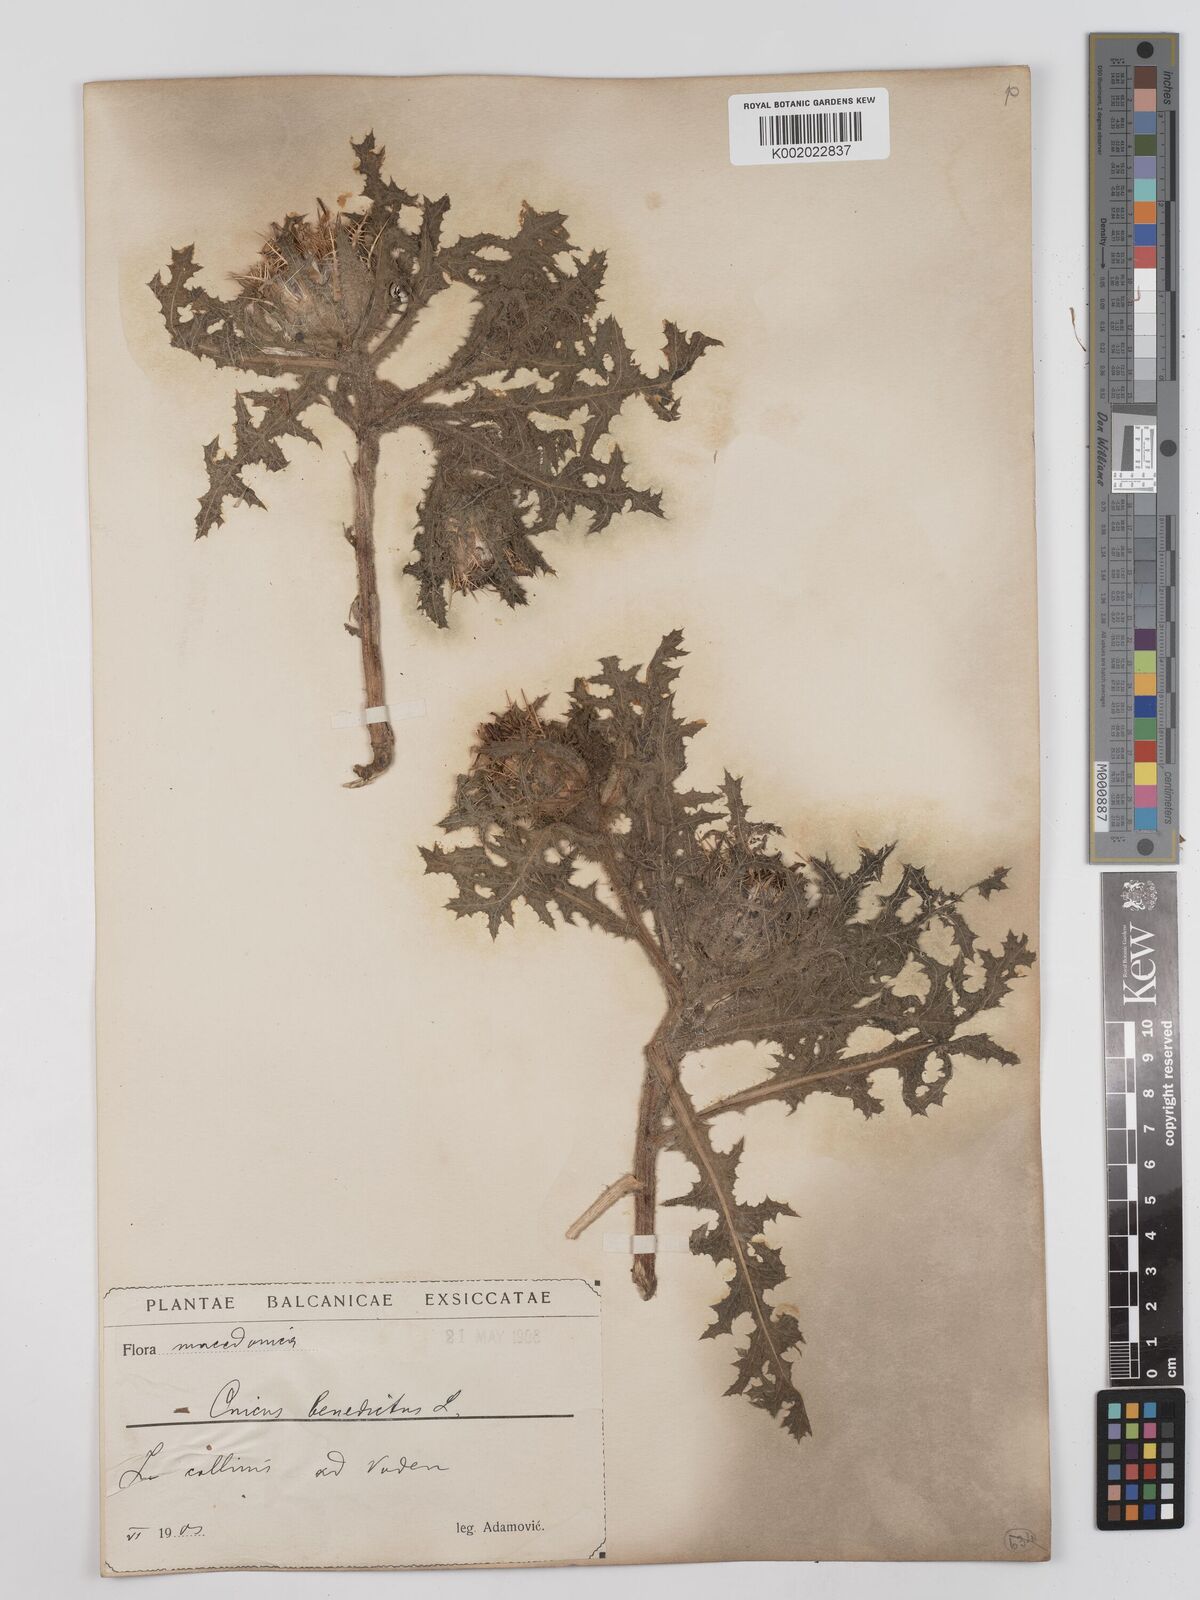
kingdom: Plantae
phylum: Tracheophyta
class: Magnoliopsida
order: Asterales
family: Asteraceae
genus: Centaurea
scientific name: Centaurea benedicta
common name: Blessed thistle
